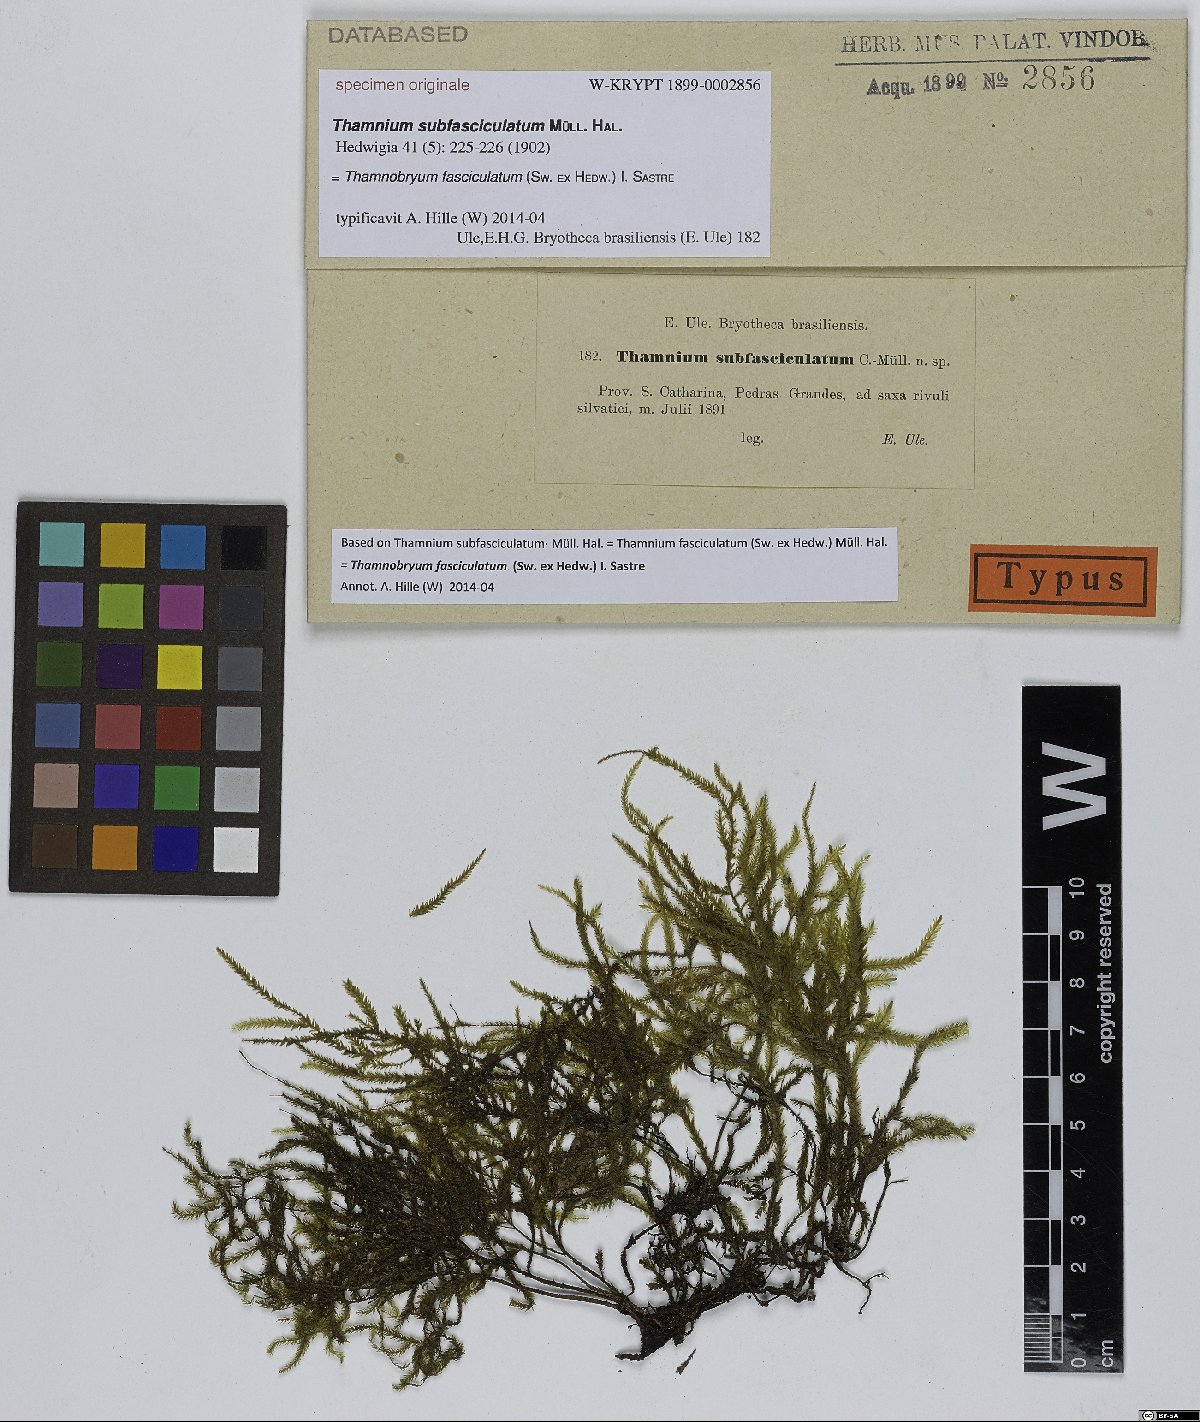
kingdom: Plantae
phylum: Bryophyta
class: Bryopsida
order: Hypnales
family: Neckeraceae
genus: Thamnium
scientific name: Thamnium
